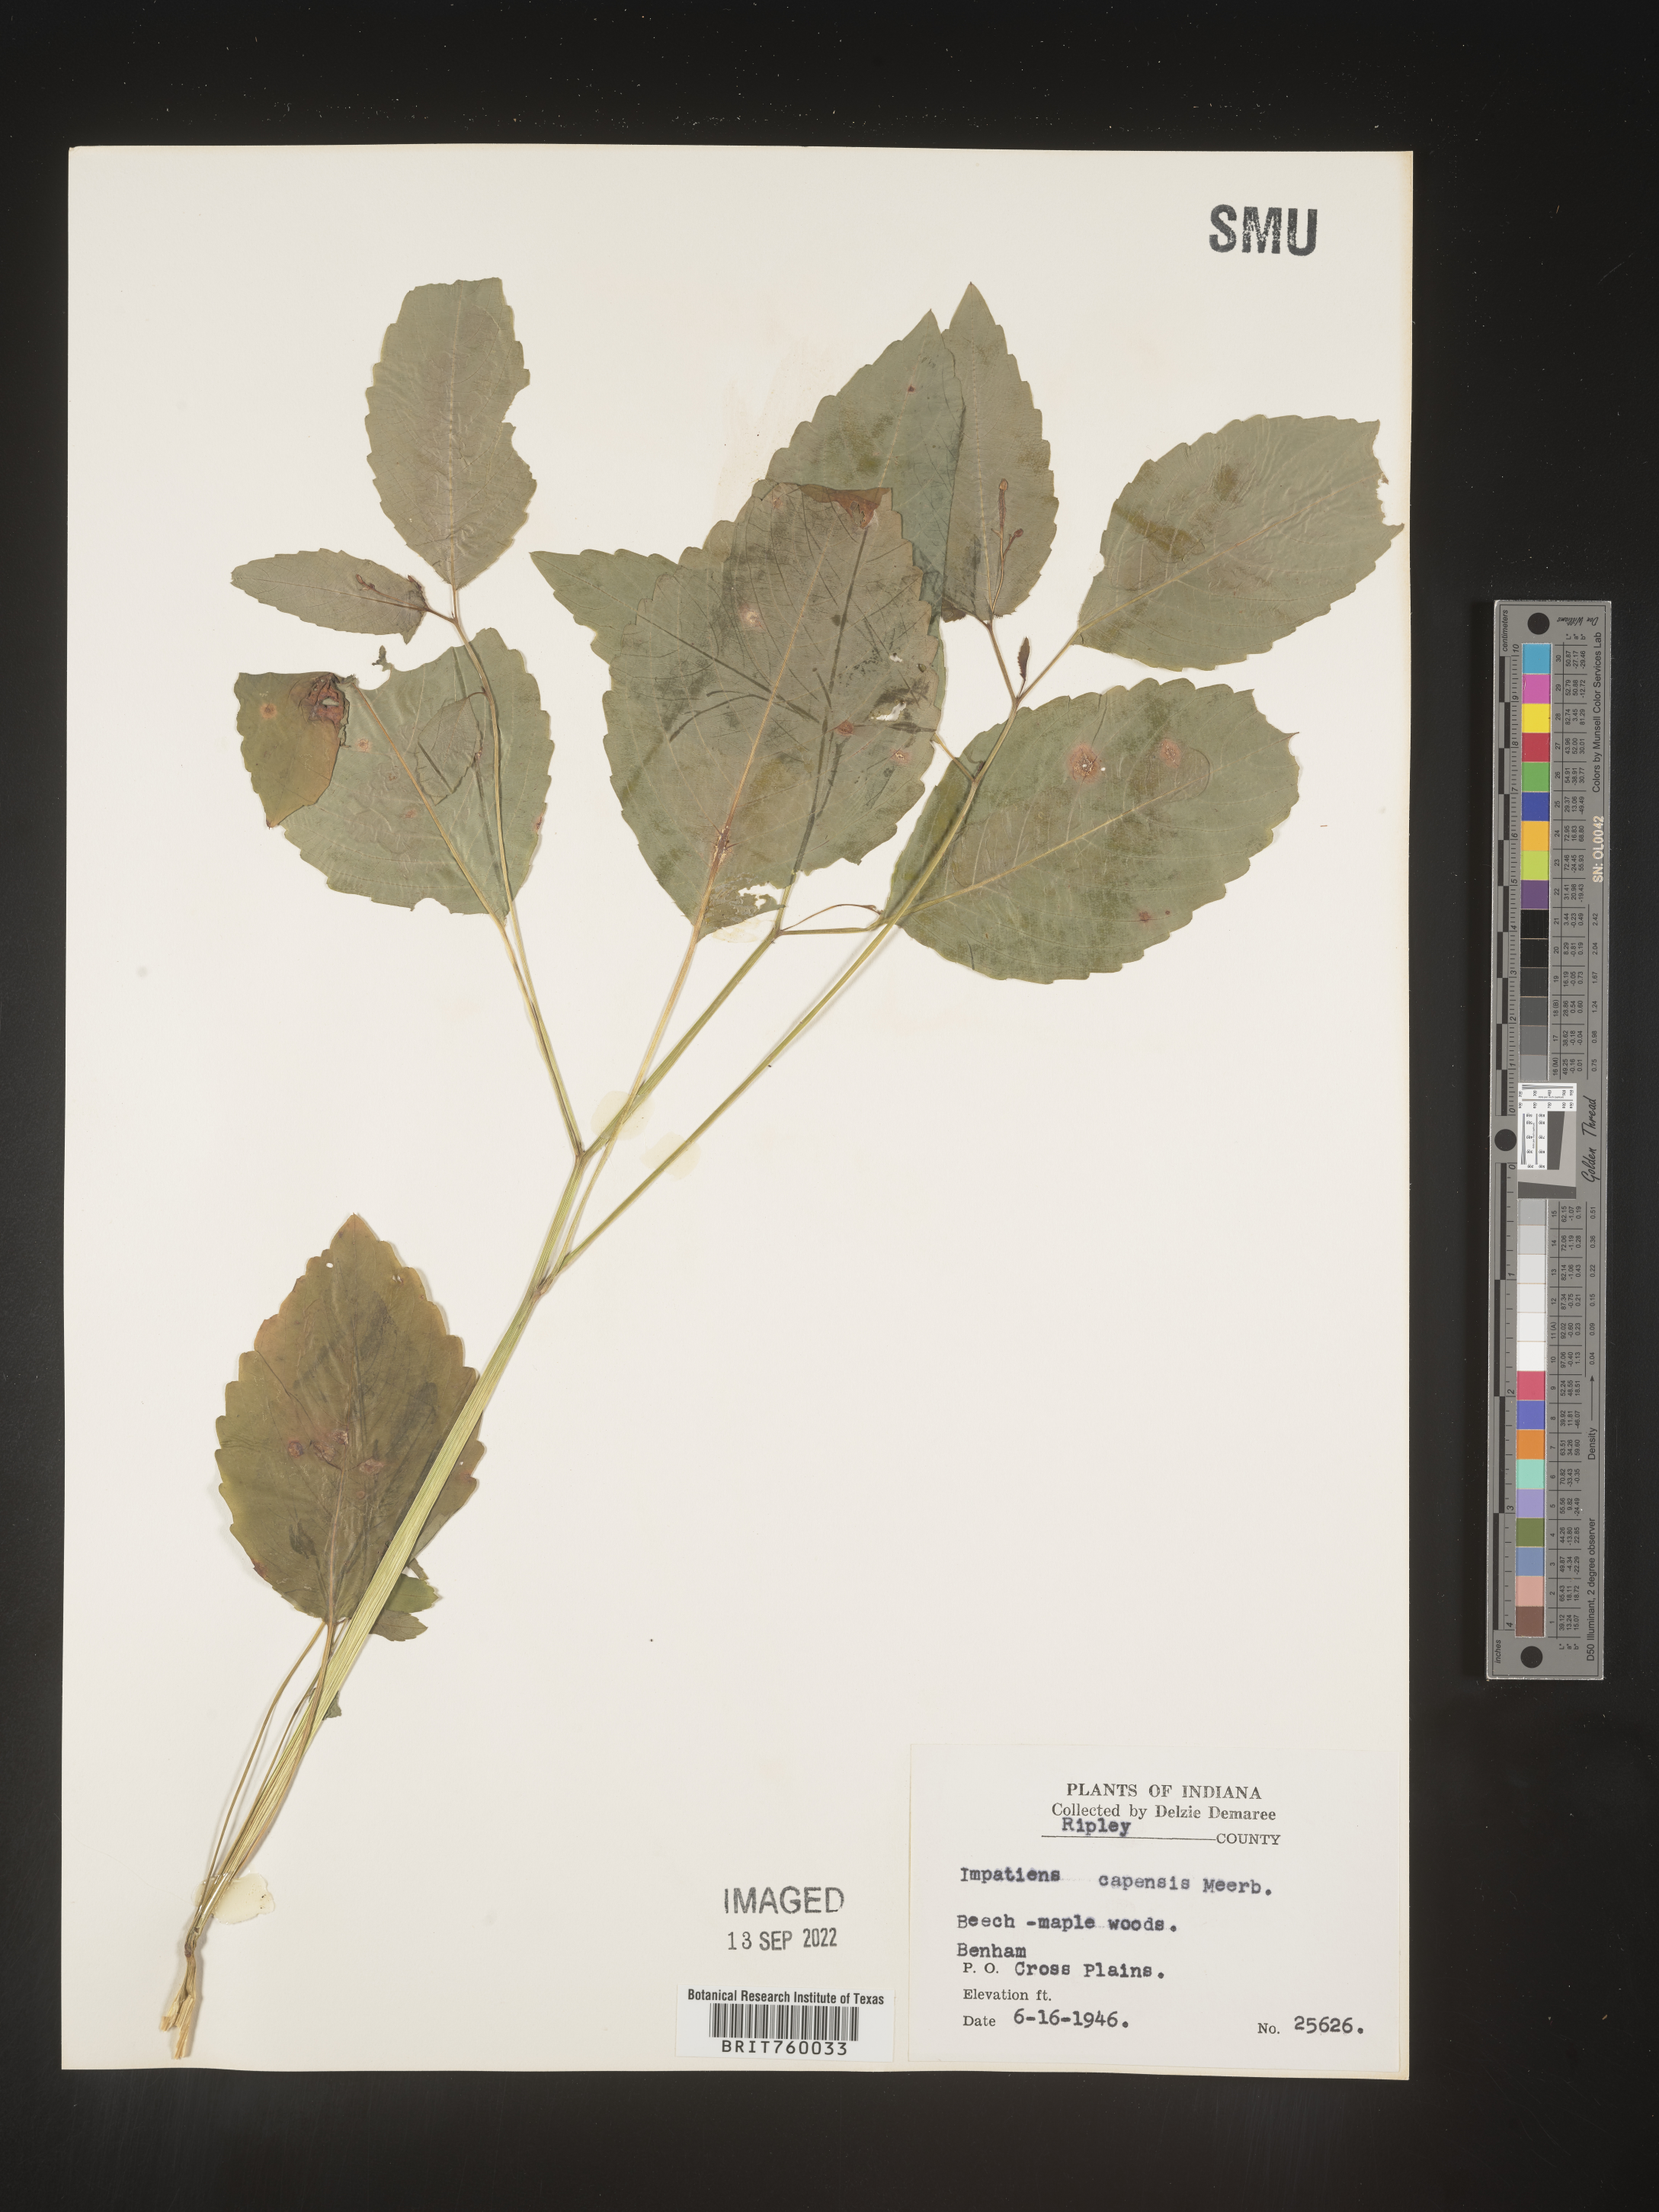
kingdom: Plantae
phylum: Tracheophyta
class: Magnoliopsida
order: Ericales
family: Balsaminaceae
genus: Impatiens
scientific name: Impatiens capensis
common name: Orange balsam
